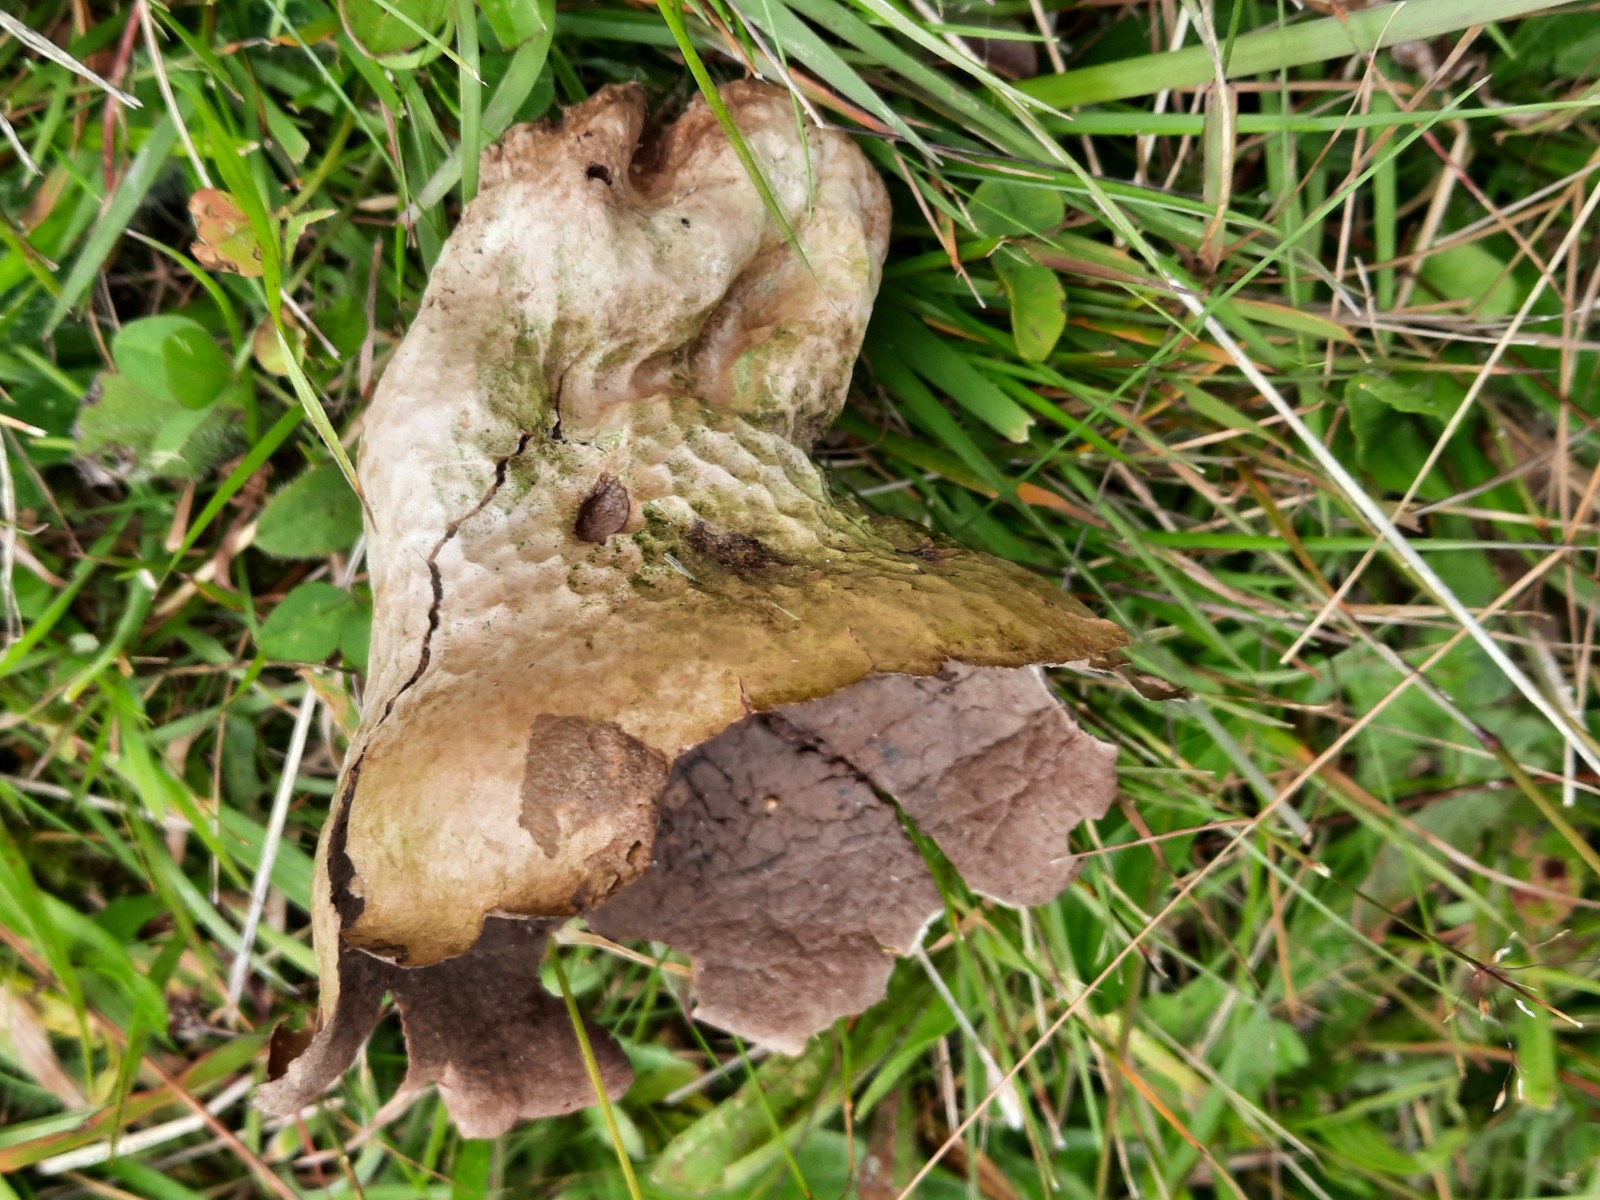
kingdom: Fungi
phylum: Basidiomycota
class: Agaricomycetes
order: Agaricales
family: Lycoperdaceae
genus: Bovistella
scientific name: Bovistella utriformis
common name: skællet støvbold
